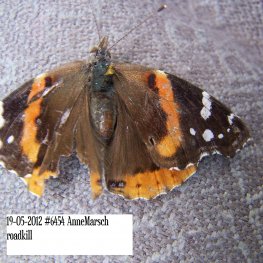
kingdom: Animalia
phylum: Arthropoda
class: Insecta
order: Lepidoptera
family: Nymphalidae
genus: Vanessa
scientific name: Vanessa atalanta
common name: Red Admiral
